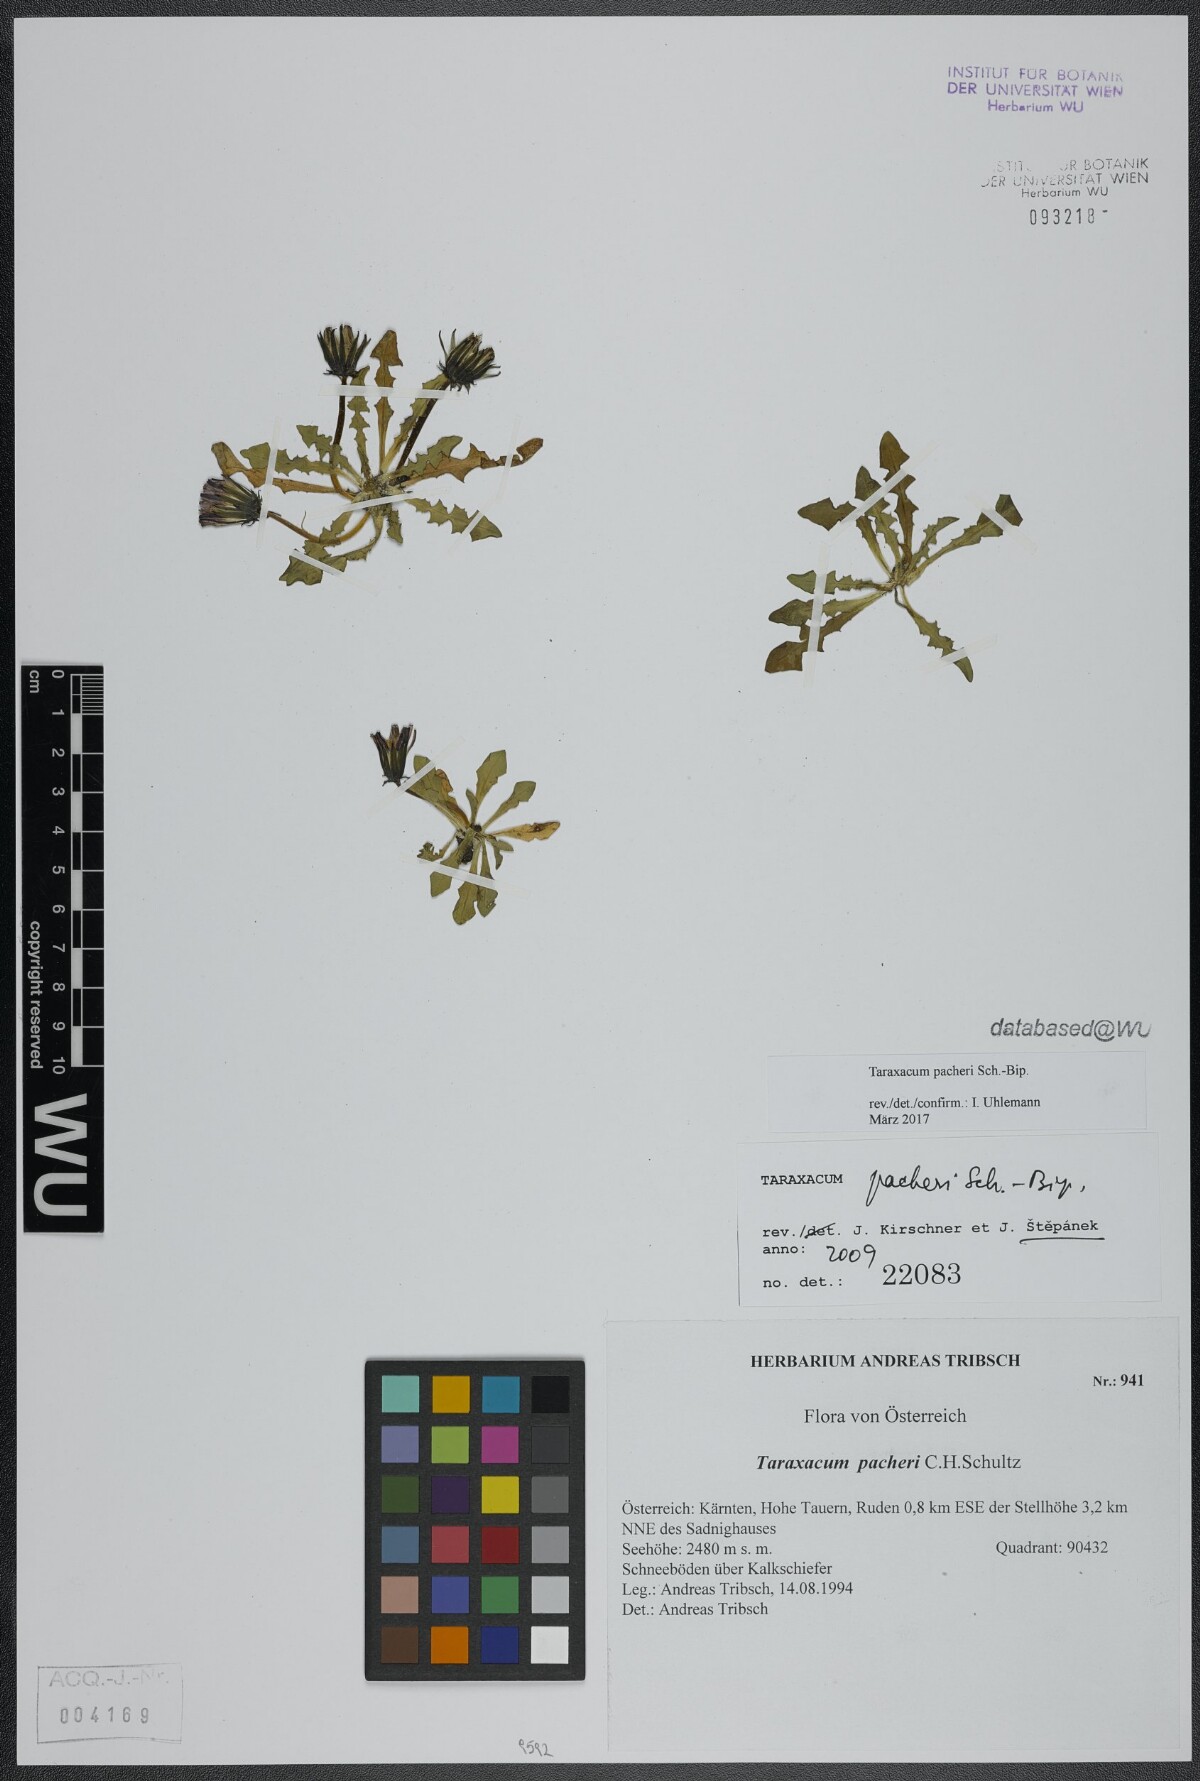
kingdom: Plantae
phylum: Tracheophyta
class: Magnoliopsida
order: Asterales
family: Asteraceae
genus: Taraxacum
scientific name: Taraxacum pacheri
